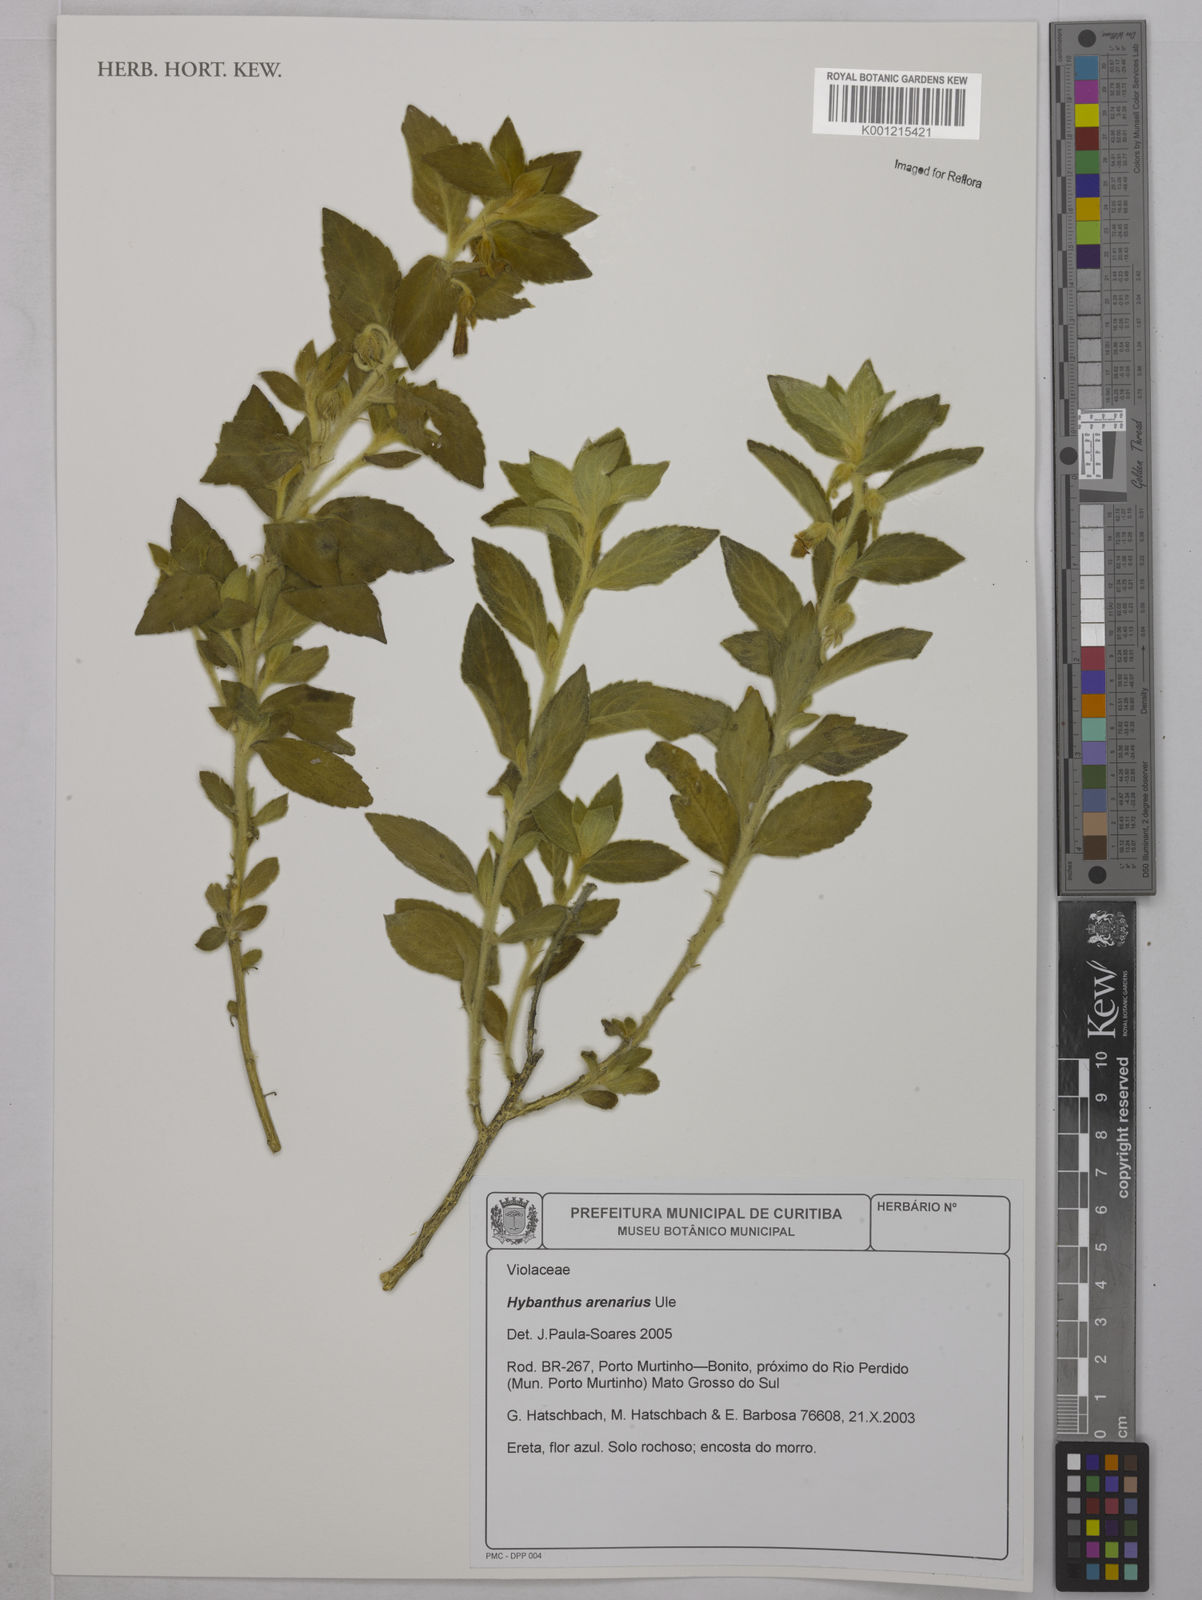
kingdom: Plantae
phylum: Tracheophyta
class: Magnoliopsida
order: Malpighiales
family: Violaceae
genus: Pombalia
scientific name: Pombalia arenaria
